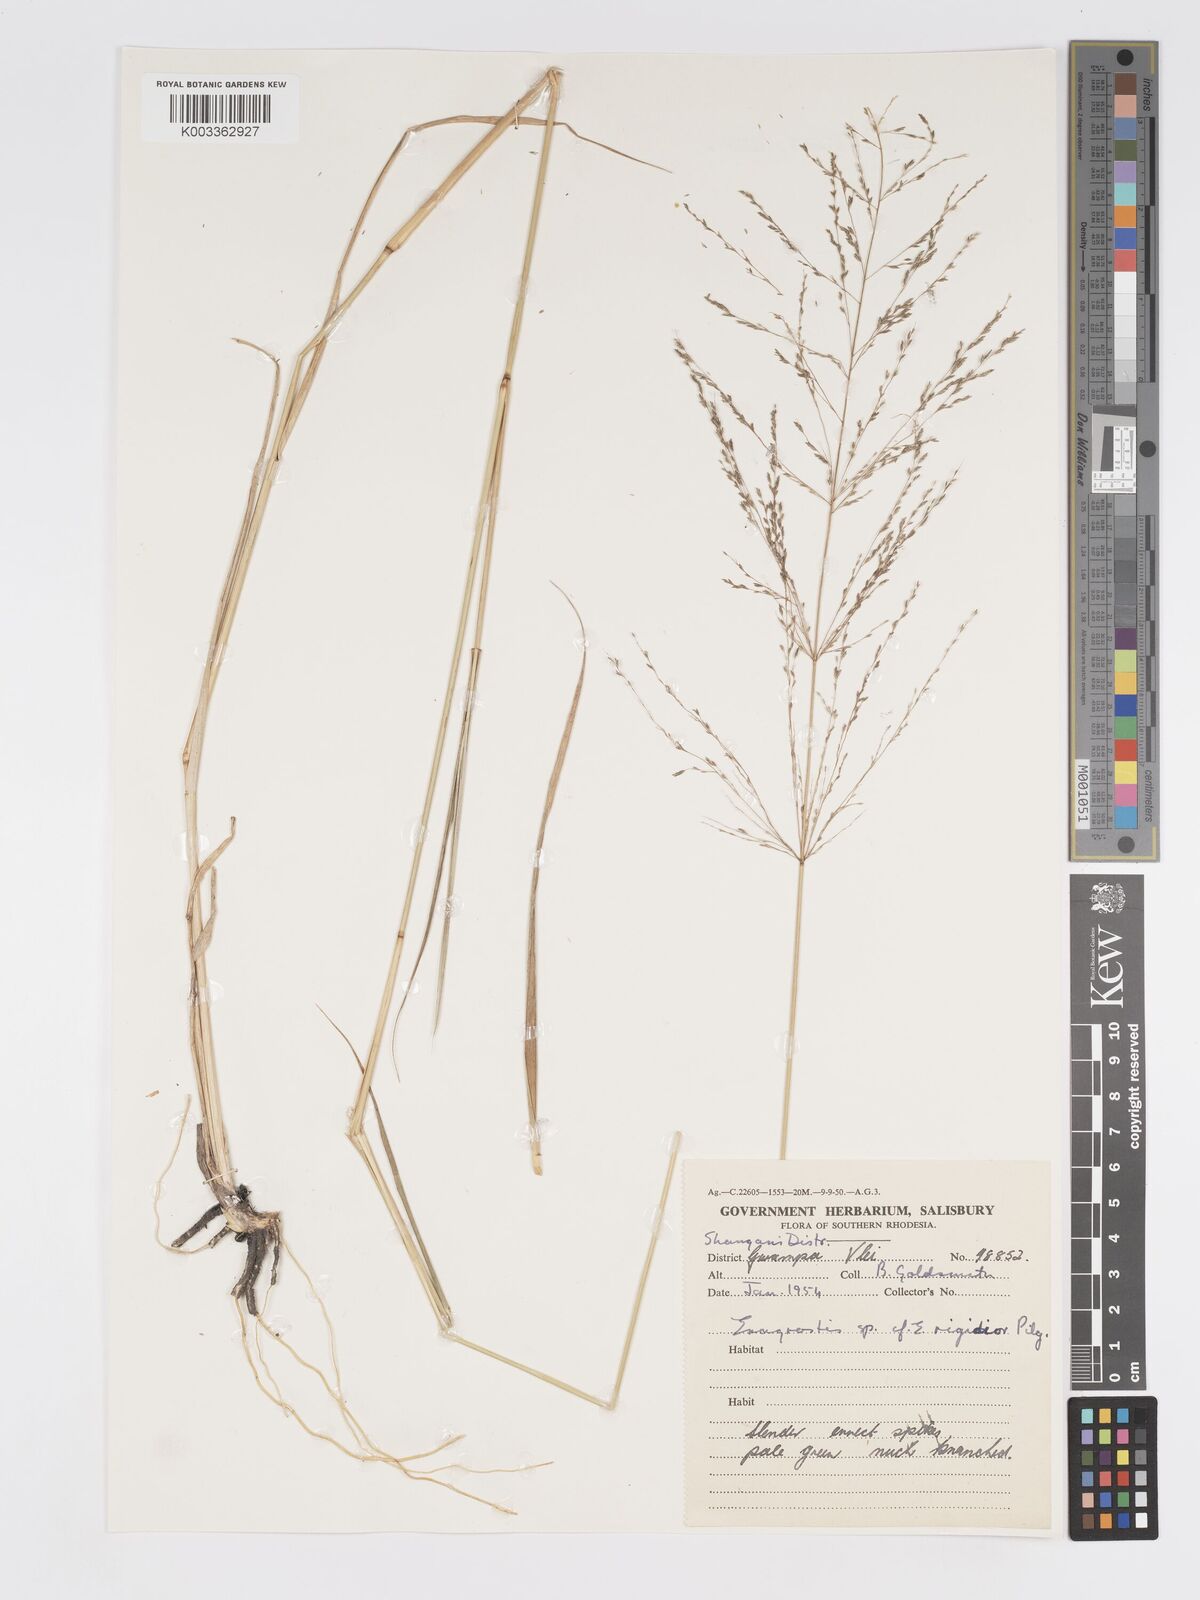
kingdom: Plantae
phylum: Tracheophyta
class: Liliopsida
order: Poales
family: Poaceae
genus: Eragrostis
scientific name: Eragrostis cylindriflora
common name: Cylinderflower lovegrass
